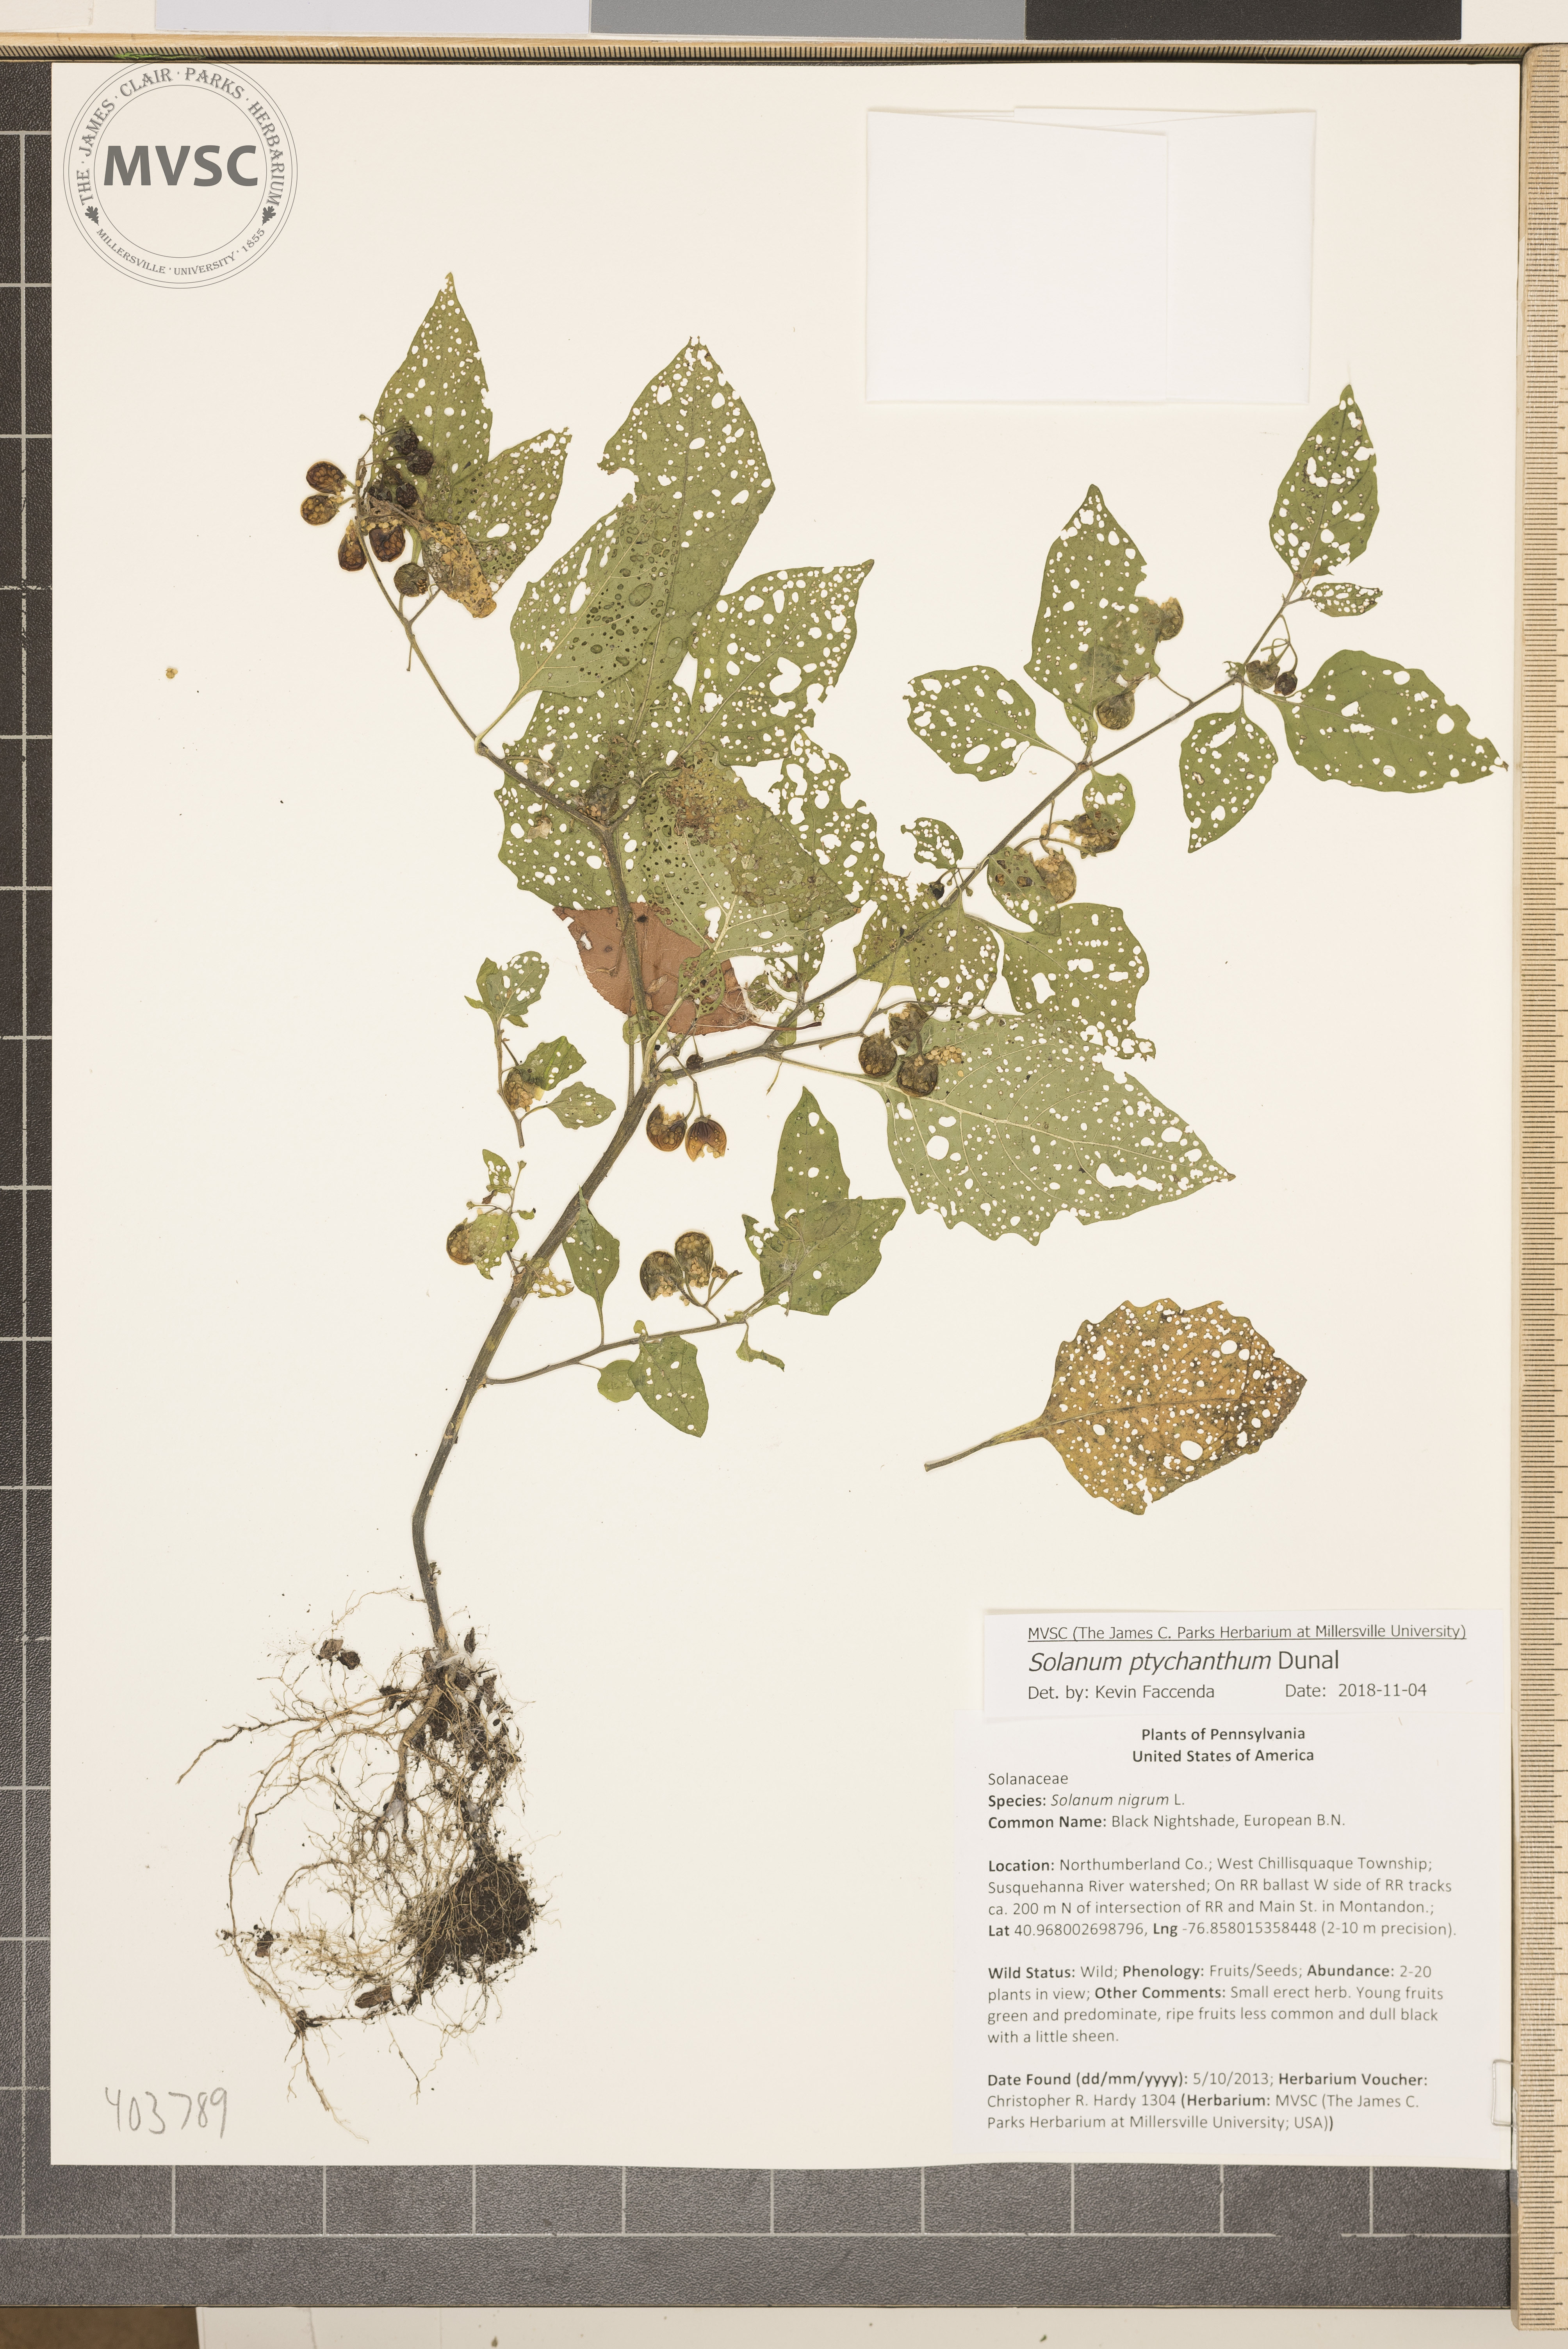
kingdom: Plantae
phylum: Tracheophyta
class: Magnoliopsida
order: Solanales
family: Solanaceae
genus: Solanum
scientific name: Solanum americanum
